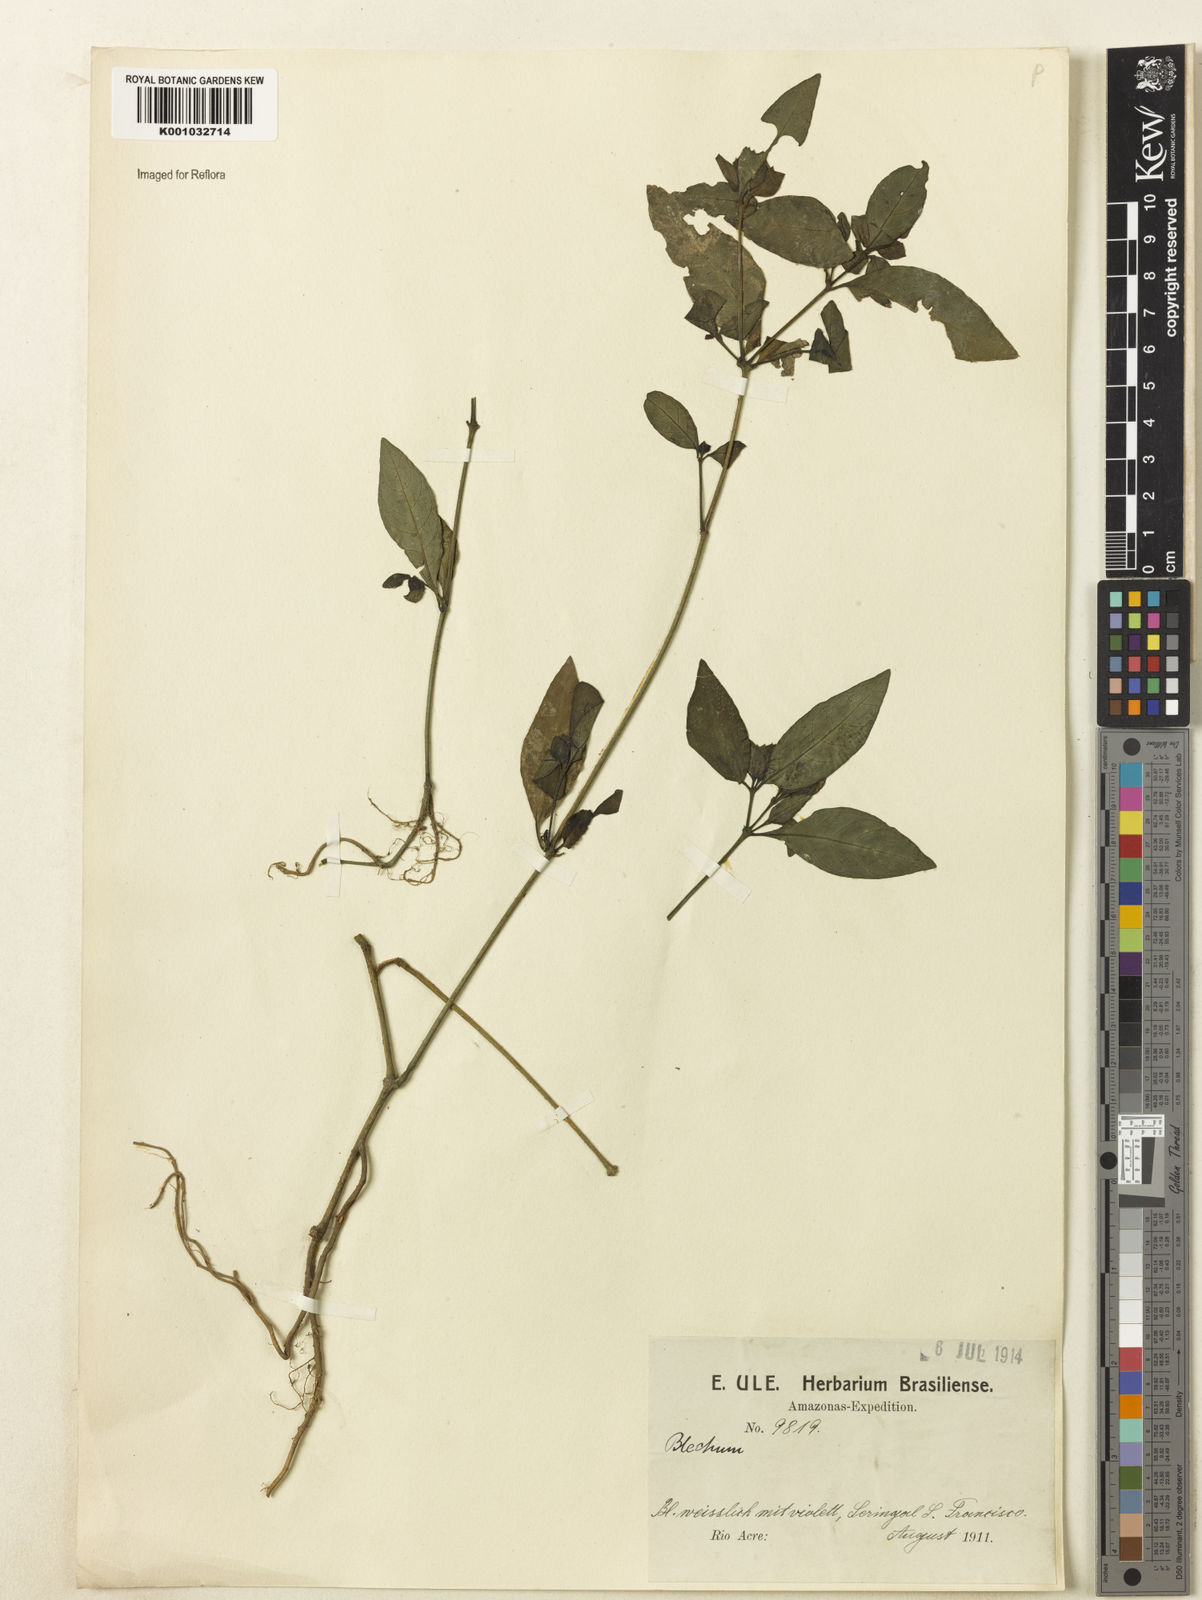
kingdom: Plantae
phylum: Tracheophyta
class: Magnoliopsida
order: Lamiales
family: Acanthaceae
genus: Ruellia
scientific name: Ruellia blechum
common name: Browne's blechum
